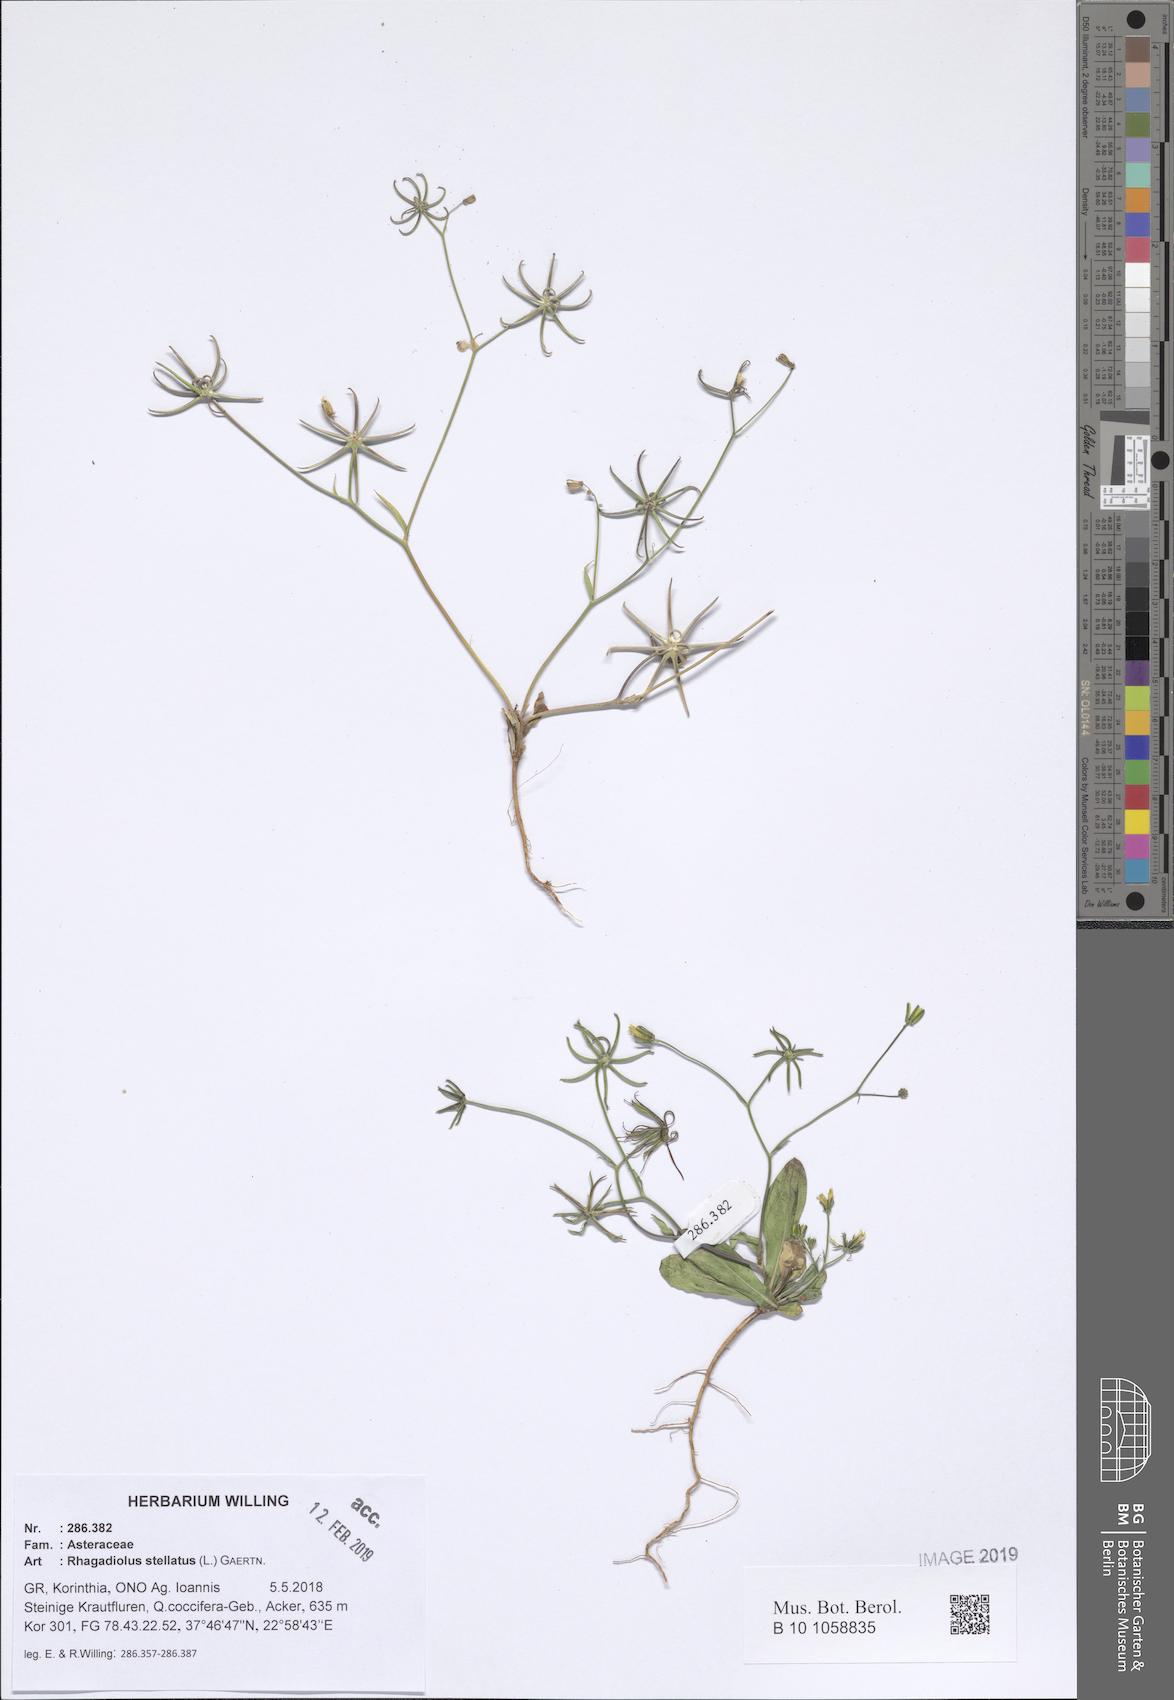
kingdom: Plantae
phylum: Tracheophyta
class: Magnoliopsida
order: Asterales
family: Asteraceae
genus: Rhagadiolus
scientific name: Rhagadiolus stellatus
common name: Star hawkbit
